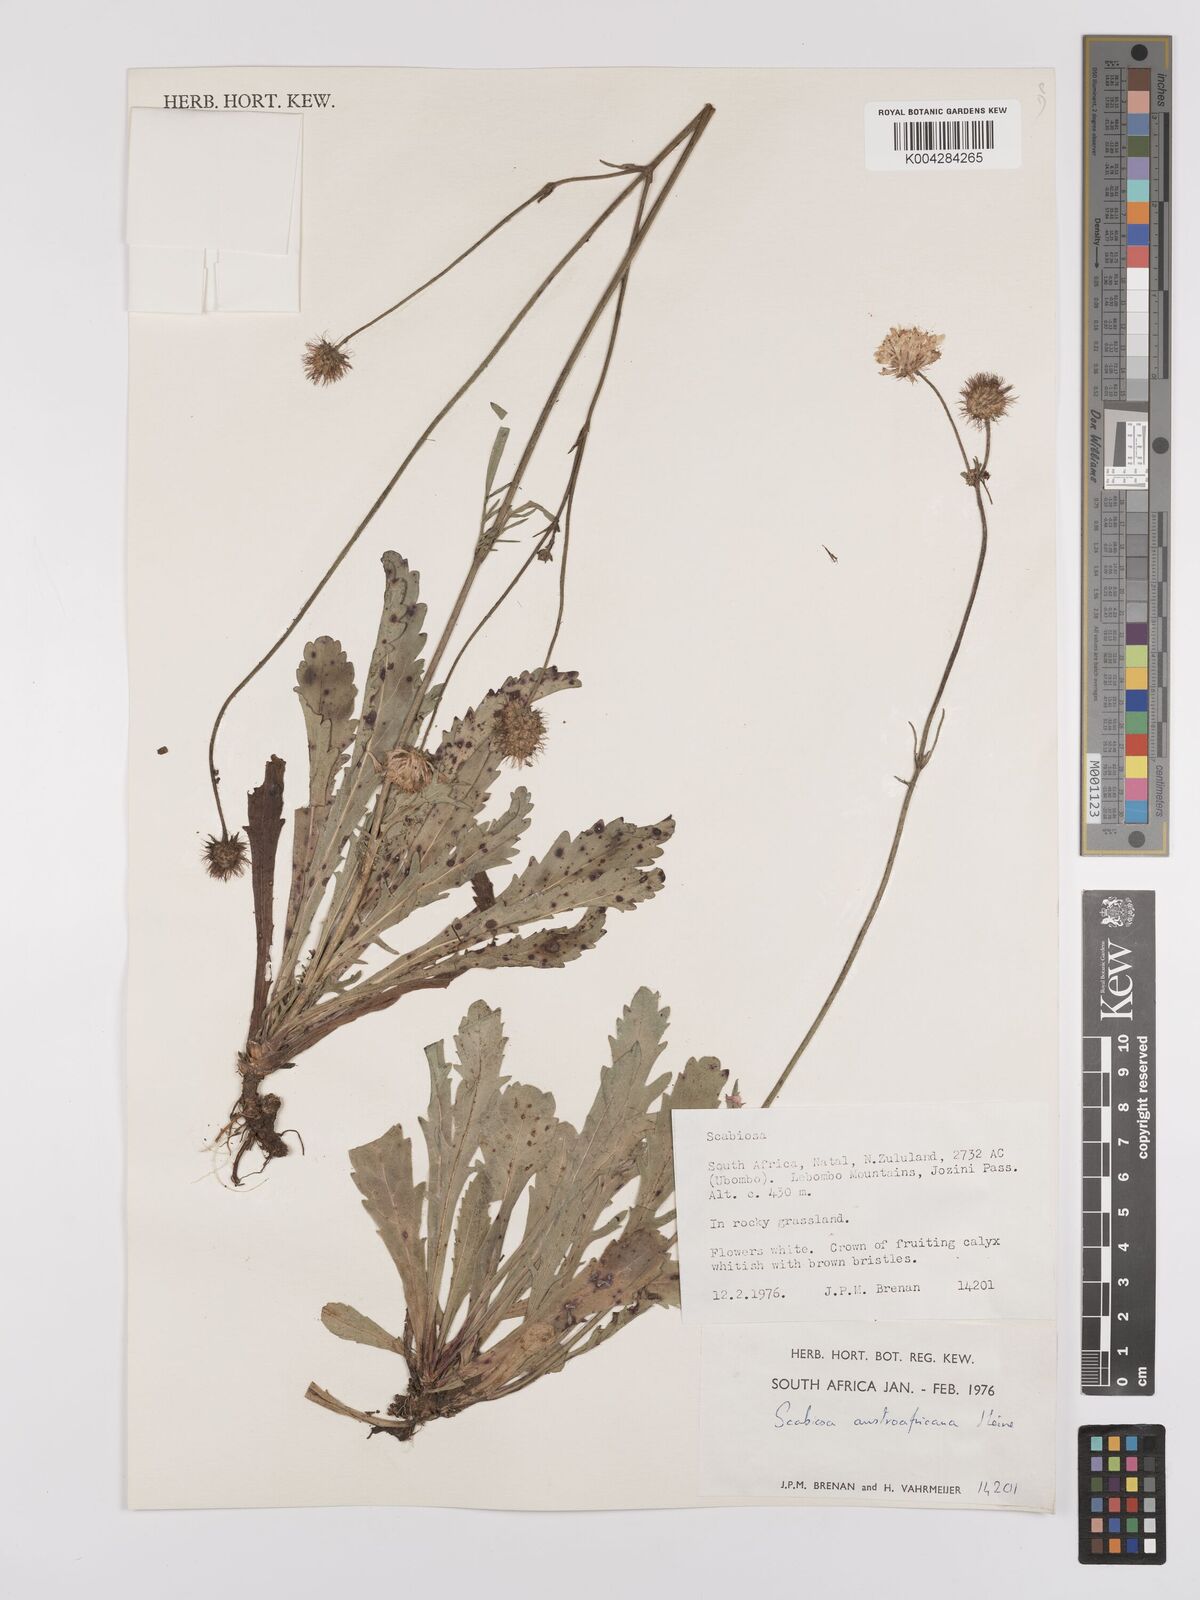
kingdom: Plantae
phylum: Tracheophyta
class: Magnoliopsida
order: Dipsacales
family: Caprifoliaceae
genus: Scabiosa
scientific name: Scabiosa columbaria
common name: Small scabious
